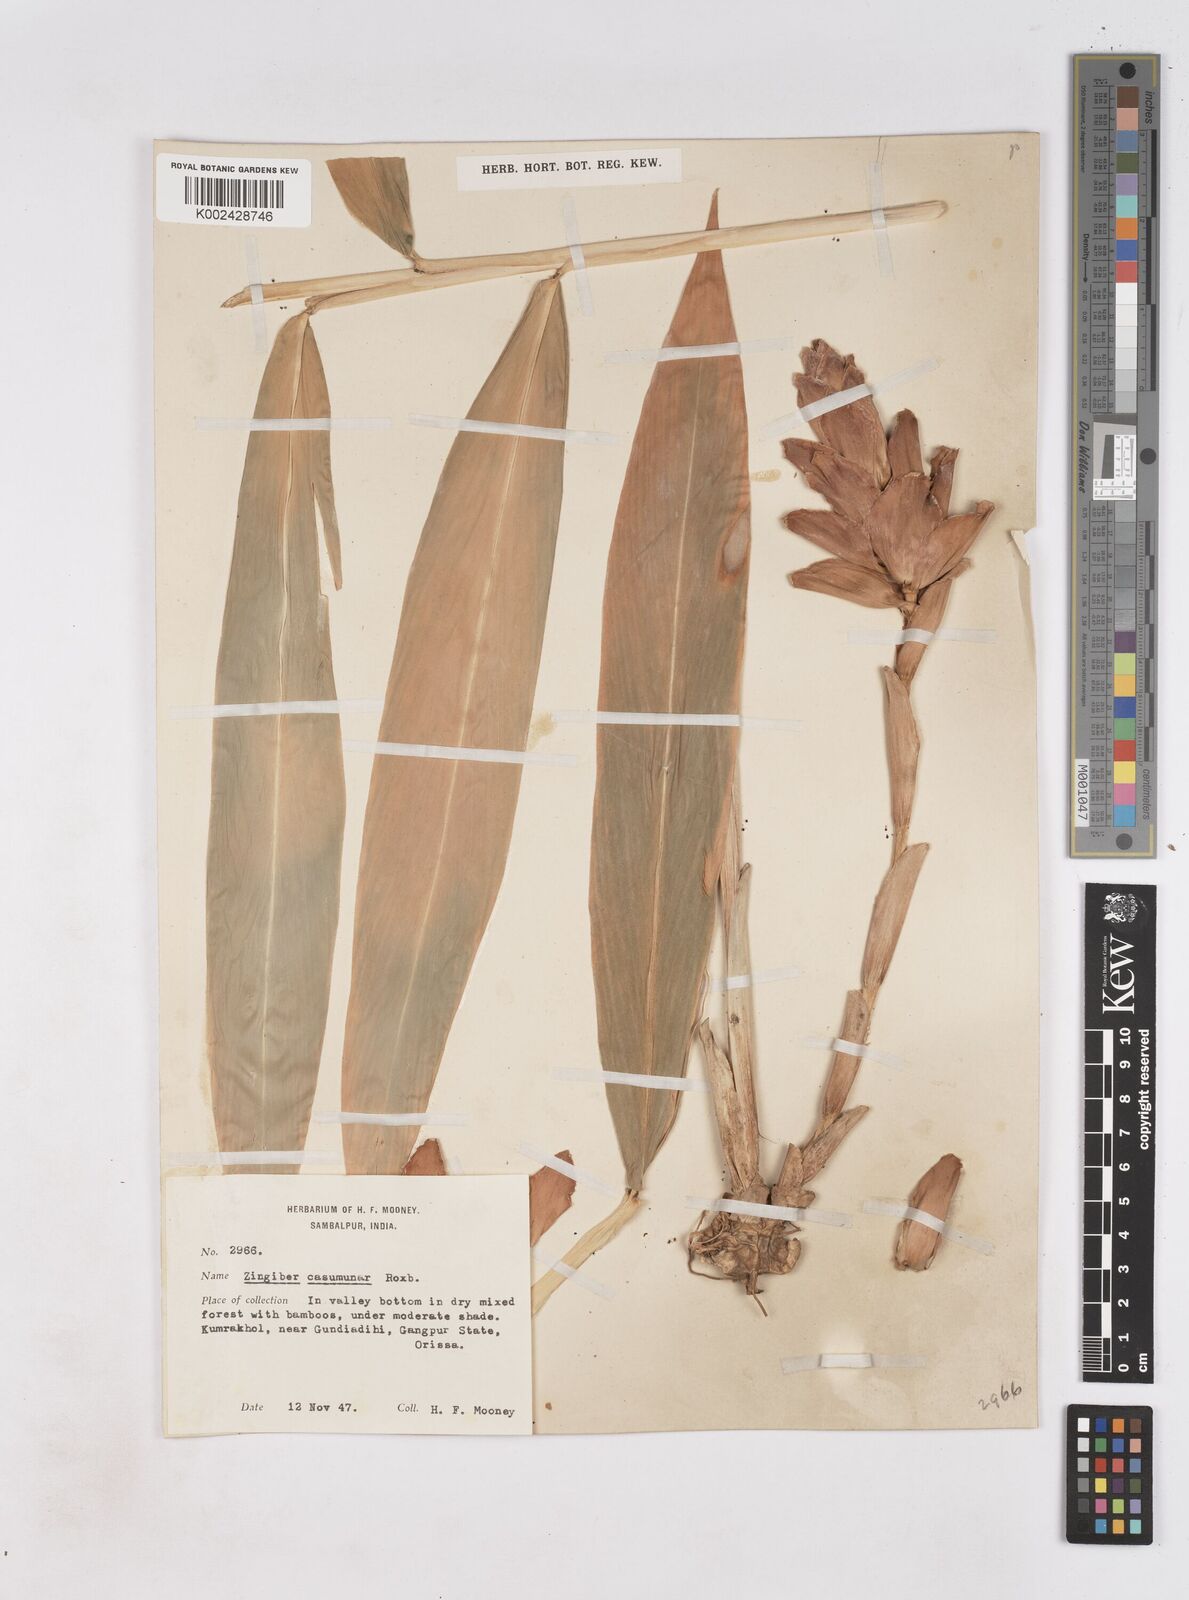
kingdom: Plantae
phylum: Tracheophyta
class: Liliopsida
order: Zingiberales
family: Zingiberaceae
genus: Zingiber
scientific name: Zingiber montanum
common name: Bengal ginger
